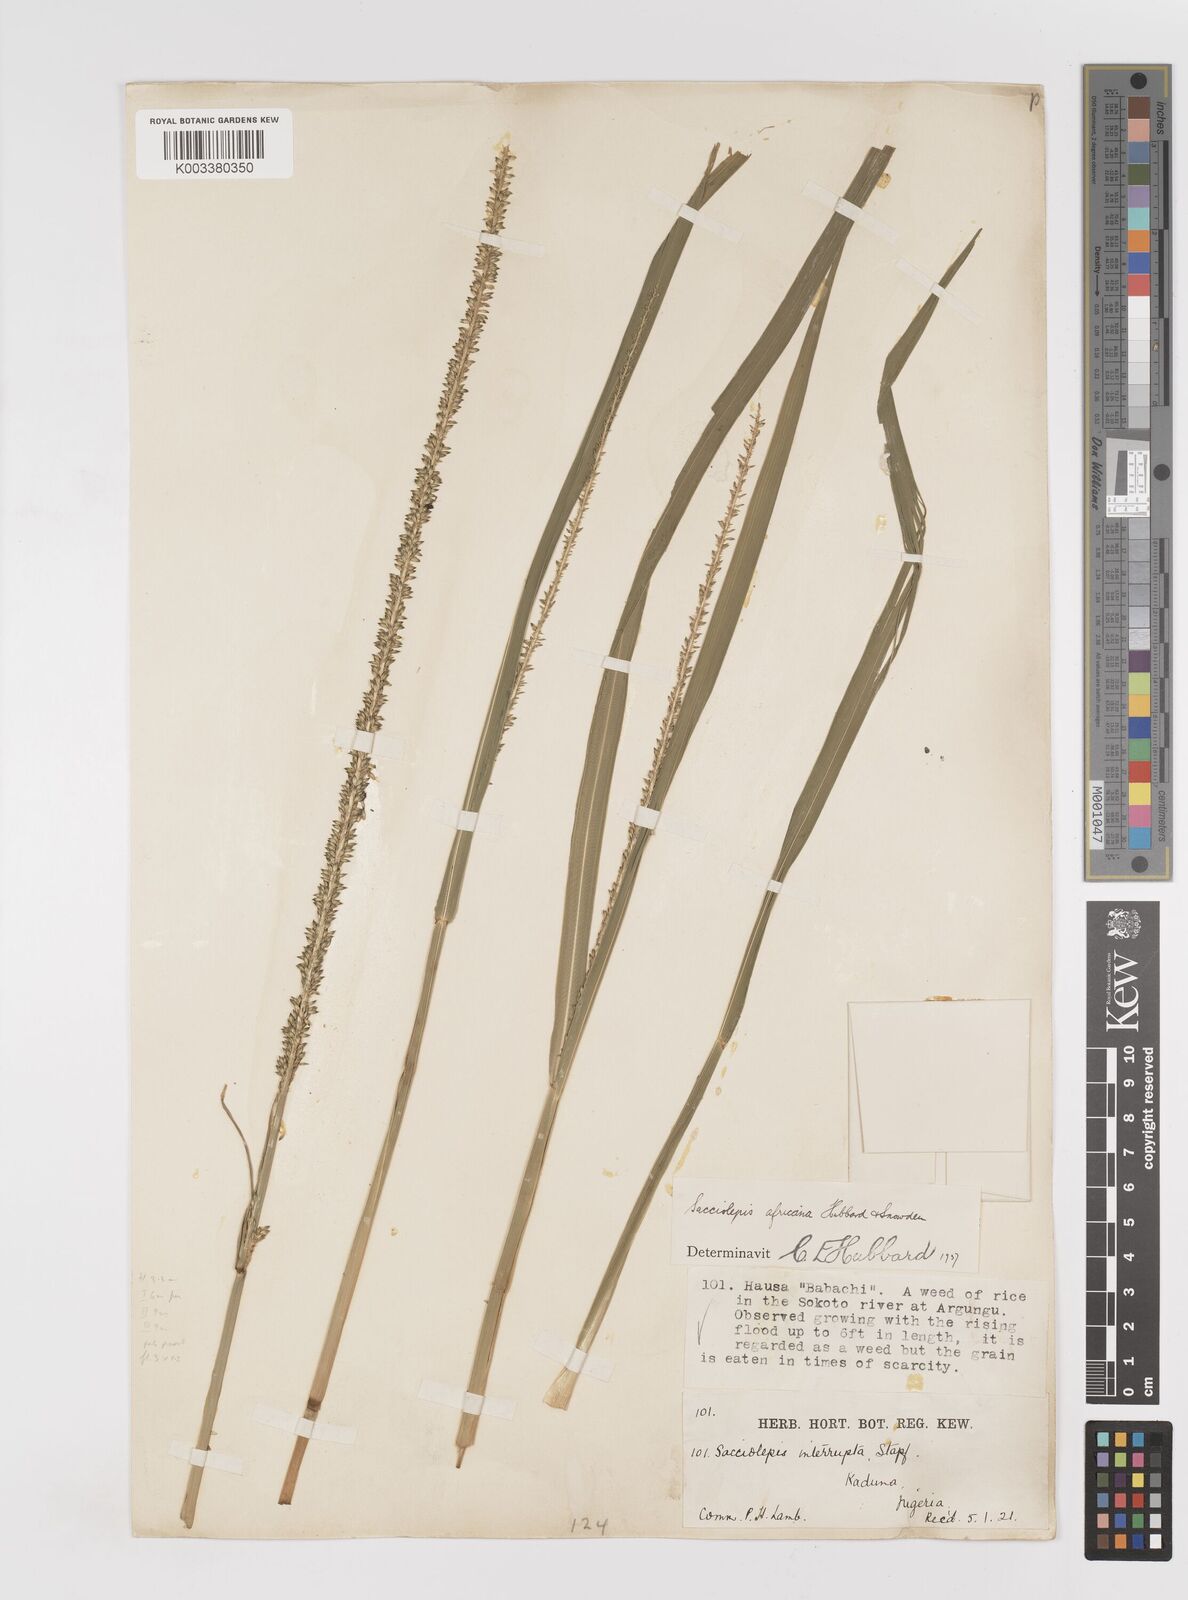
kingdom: Plantae
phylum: Tracheophyta
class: Liliopsida
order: Poales
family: Poaceae
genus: Sacciolepis
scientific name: Sacciolepis africana
